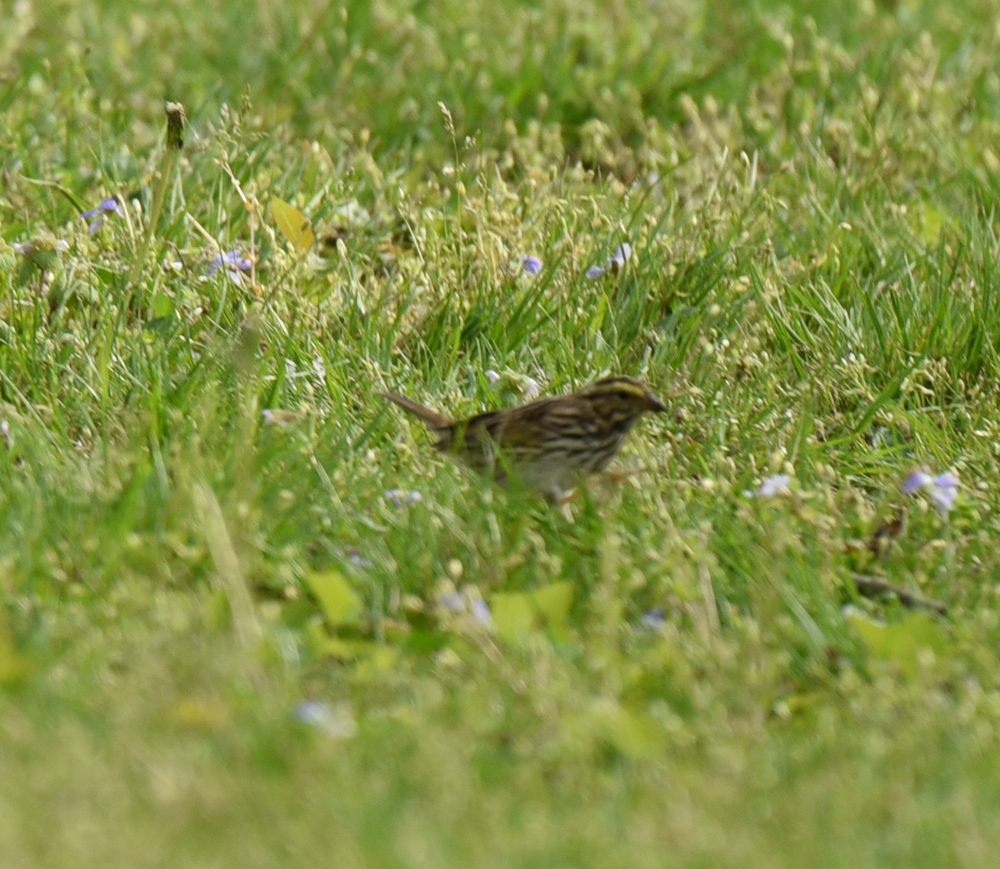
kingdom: Animalia
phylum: Chordata
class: Aves
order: Passeriformes
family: Passerellidae
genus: Spizella
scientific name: Spizella passerina
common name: Chipping sparrow
